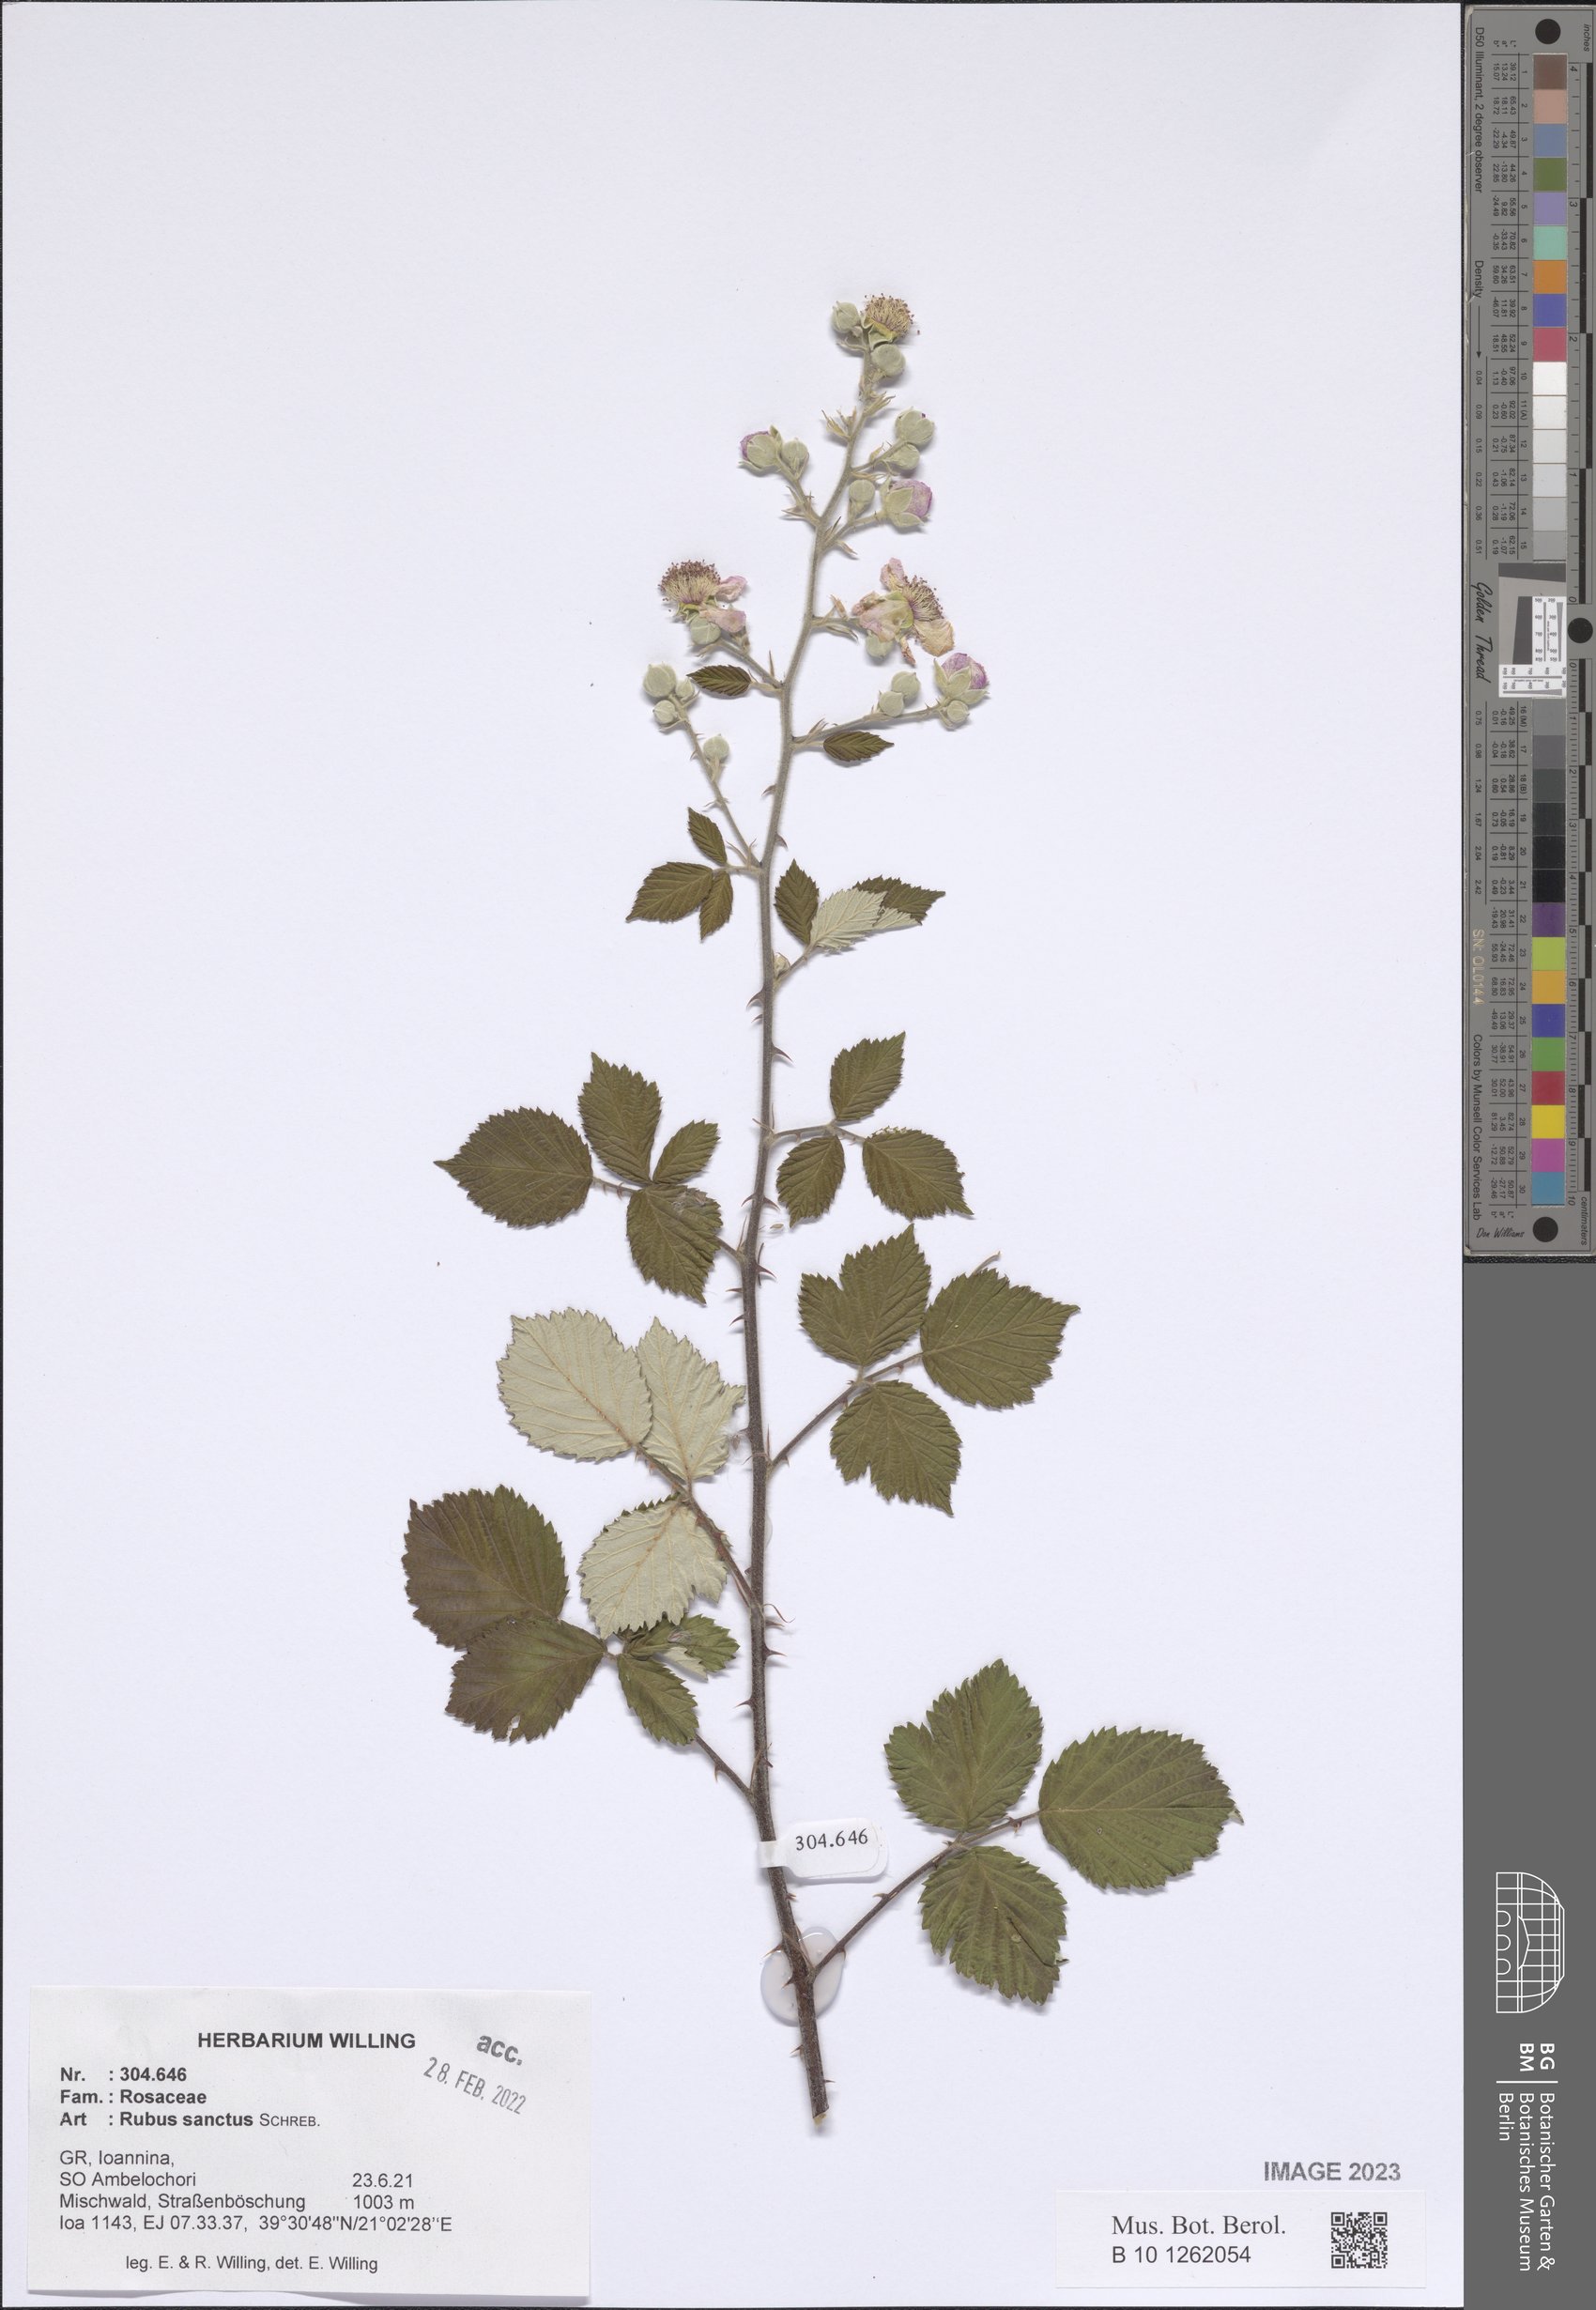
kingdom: Plantae
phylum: Tracheophyta
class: Magnoliopsida
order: Rosales
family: Rosaceae
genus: Rubus
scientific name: Rubus sanctus
